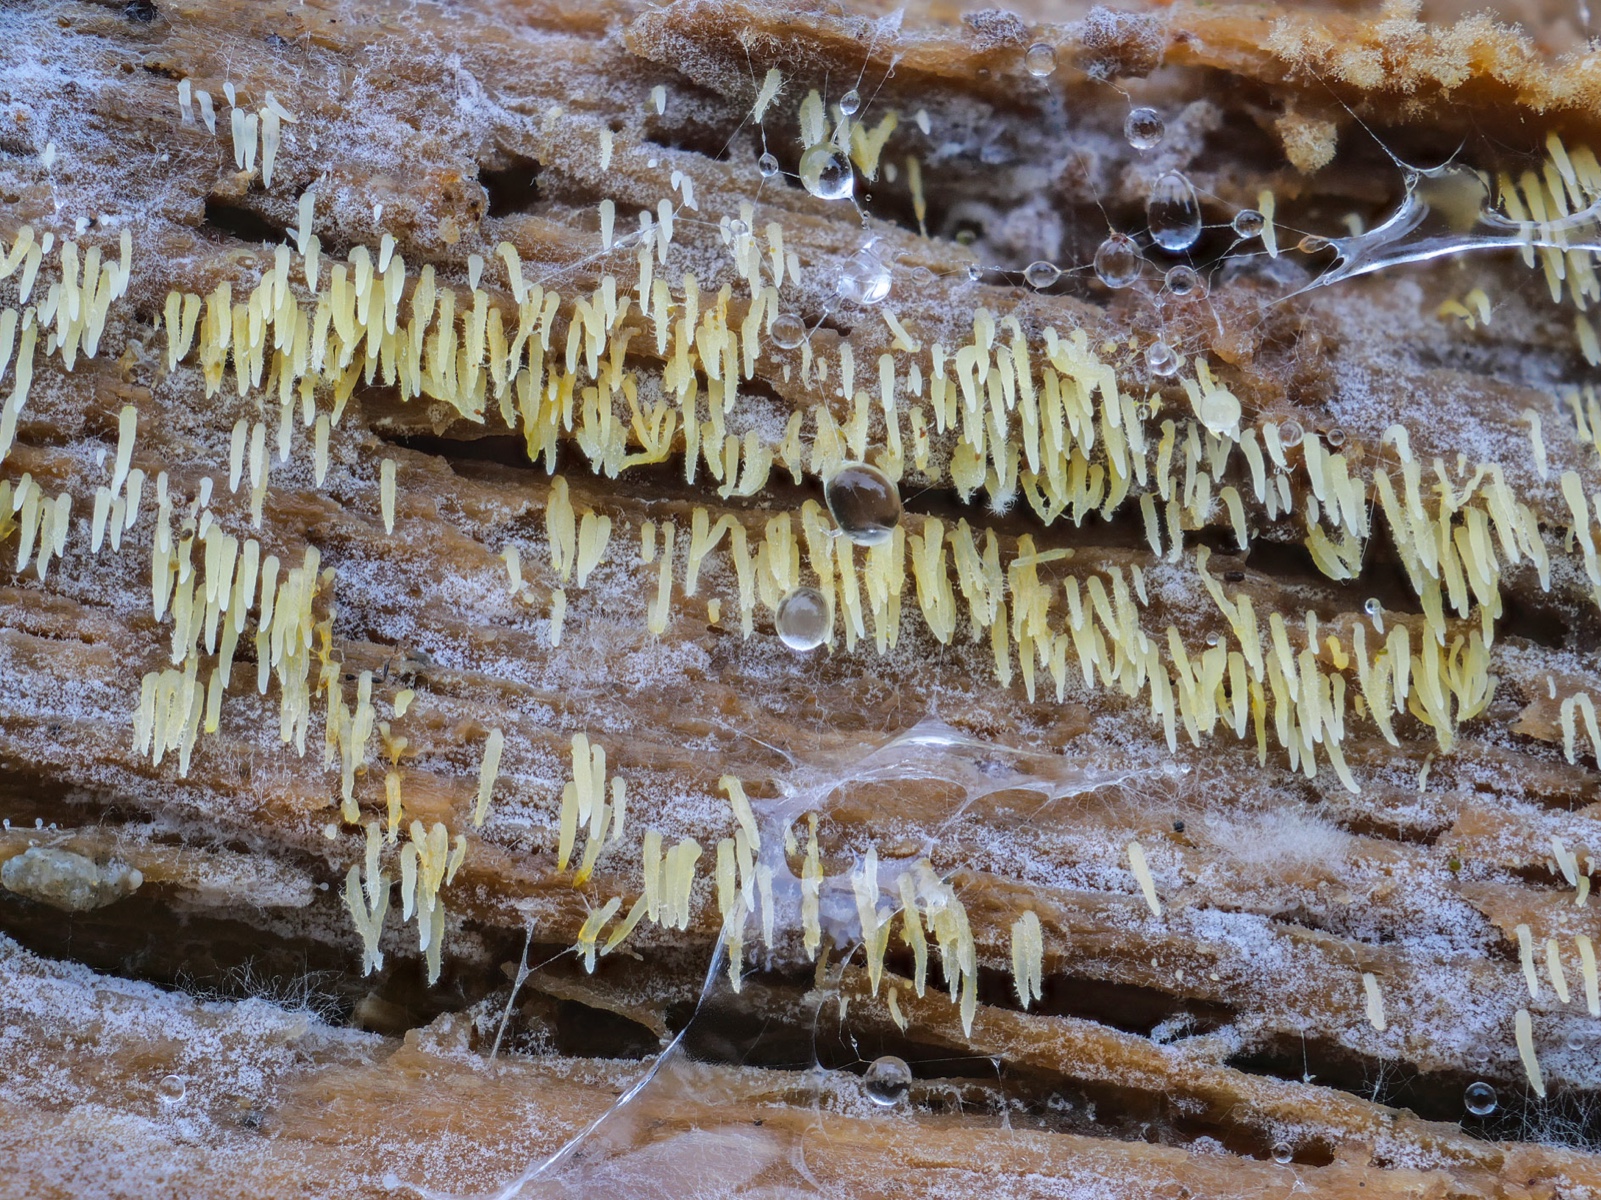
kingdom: Fungi
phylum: Basidiomycota
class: Agaricomycetes
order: Agaricales
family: Clavariaceae
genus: Mucronella
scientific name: Mucronella flava
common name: gul hængepig
